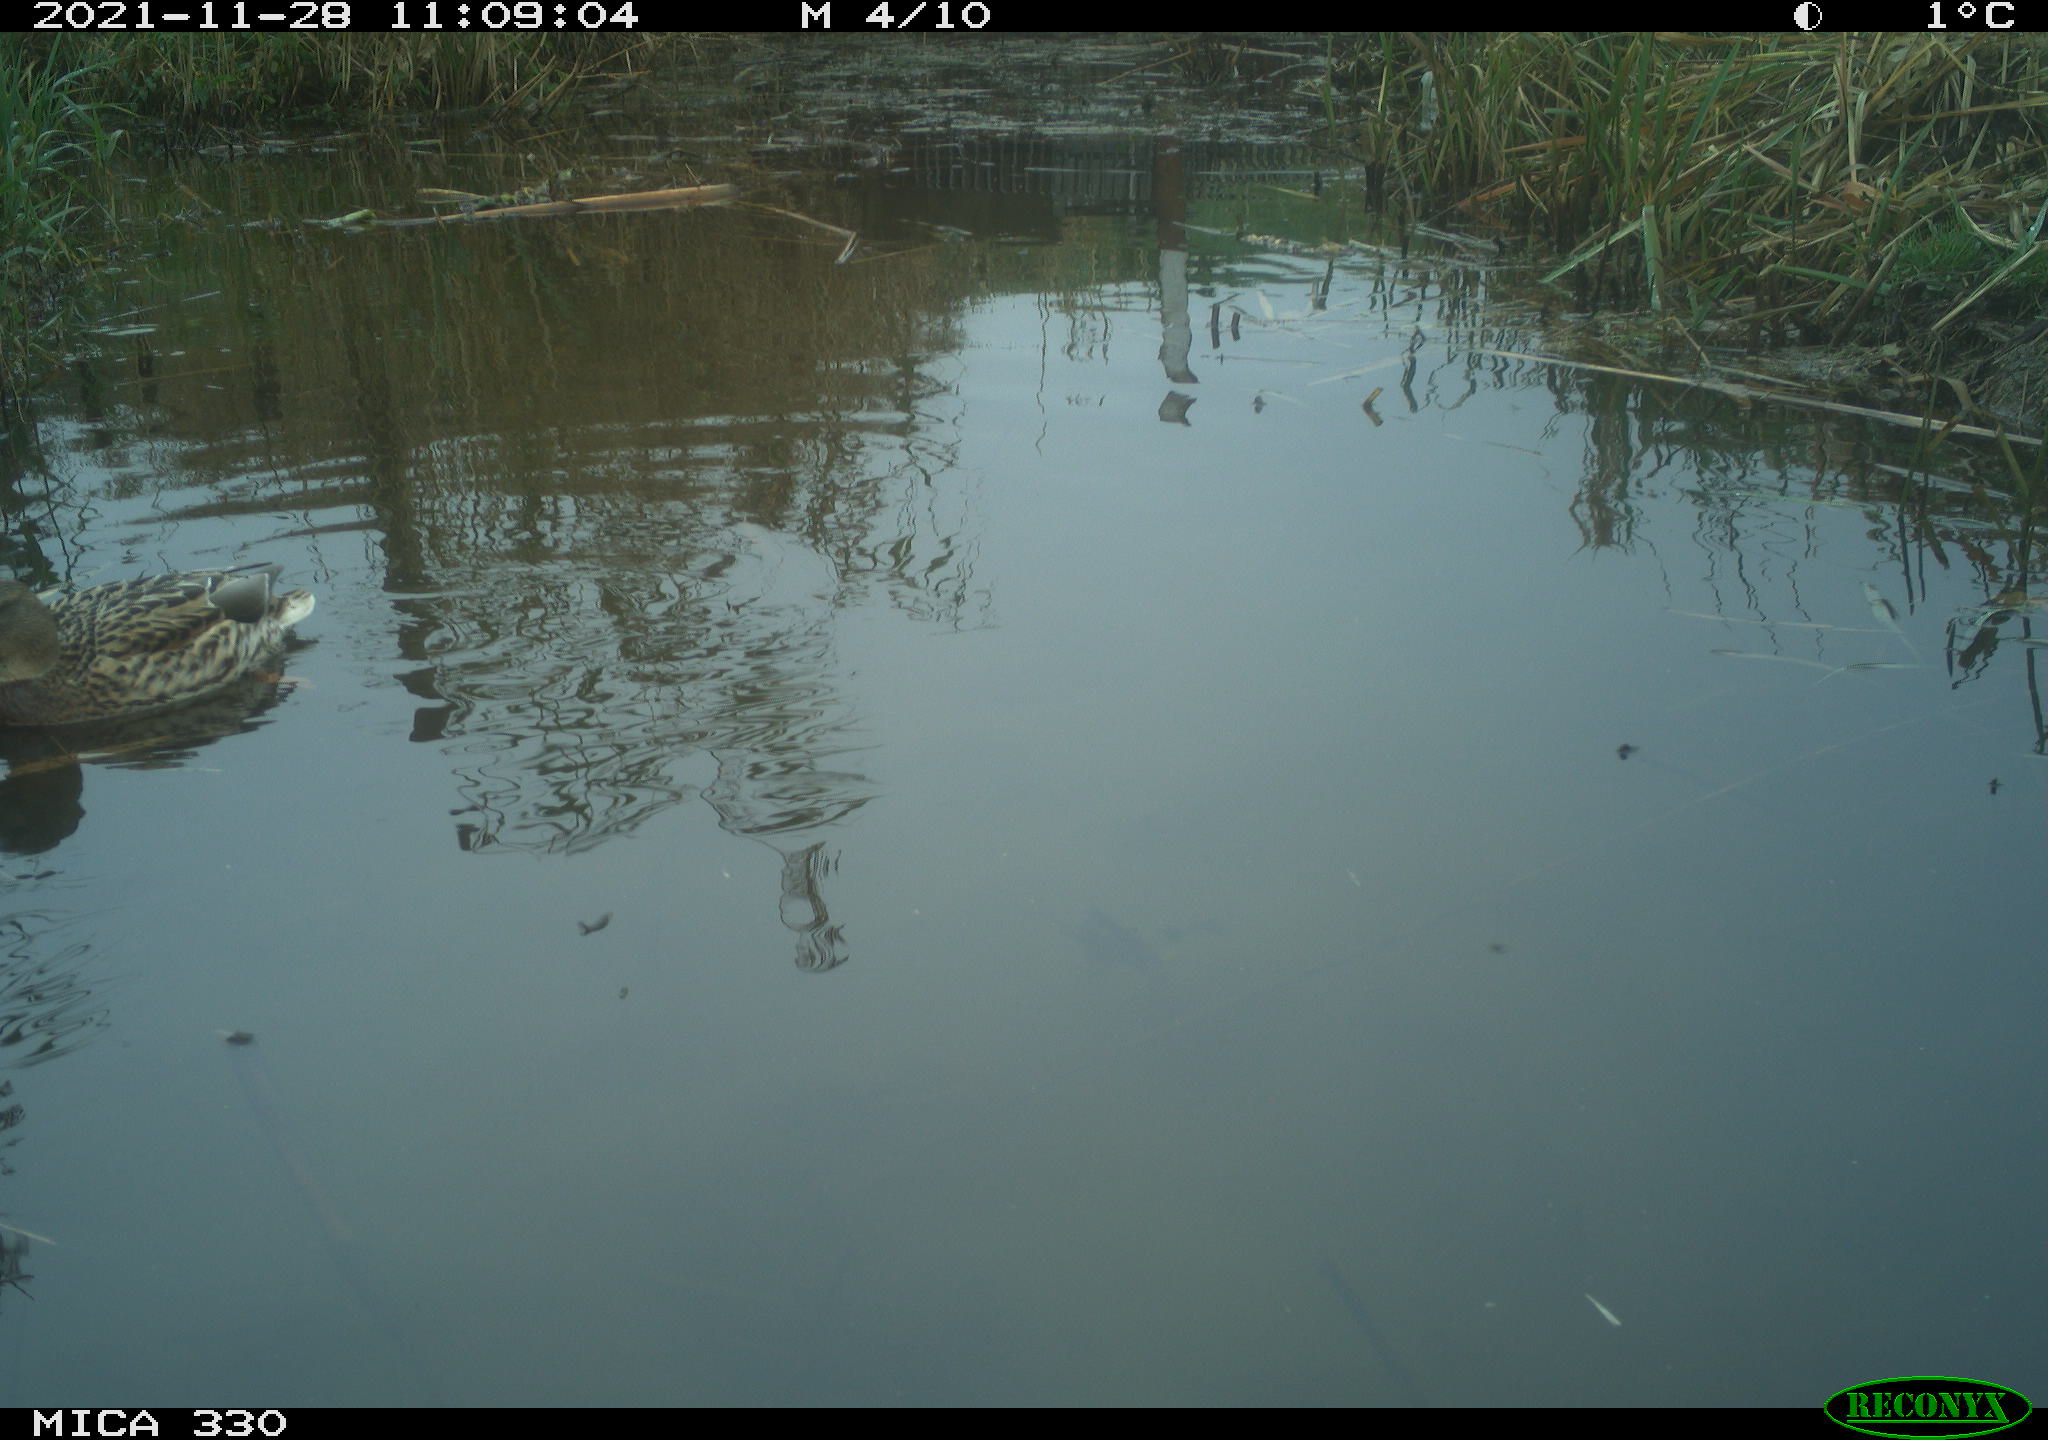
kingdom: Animalia
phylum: Chordata
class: Aves
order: Anseriformes
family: Anatidae
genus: Anas
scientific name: Anas platyrhynchos
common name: Mallard
